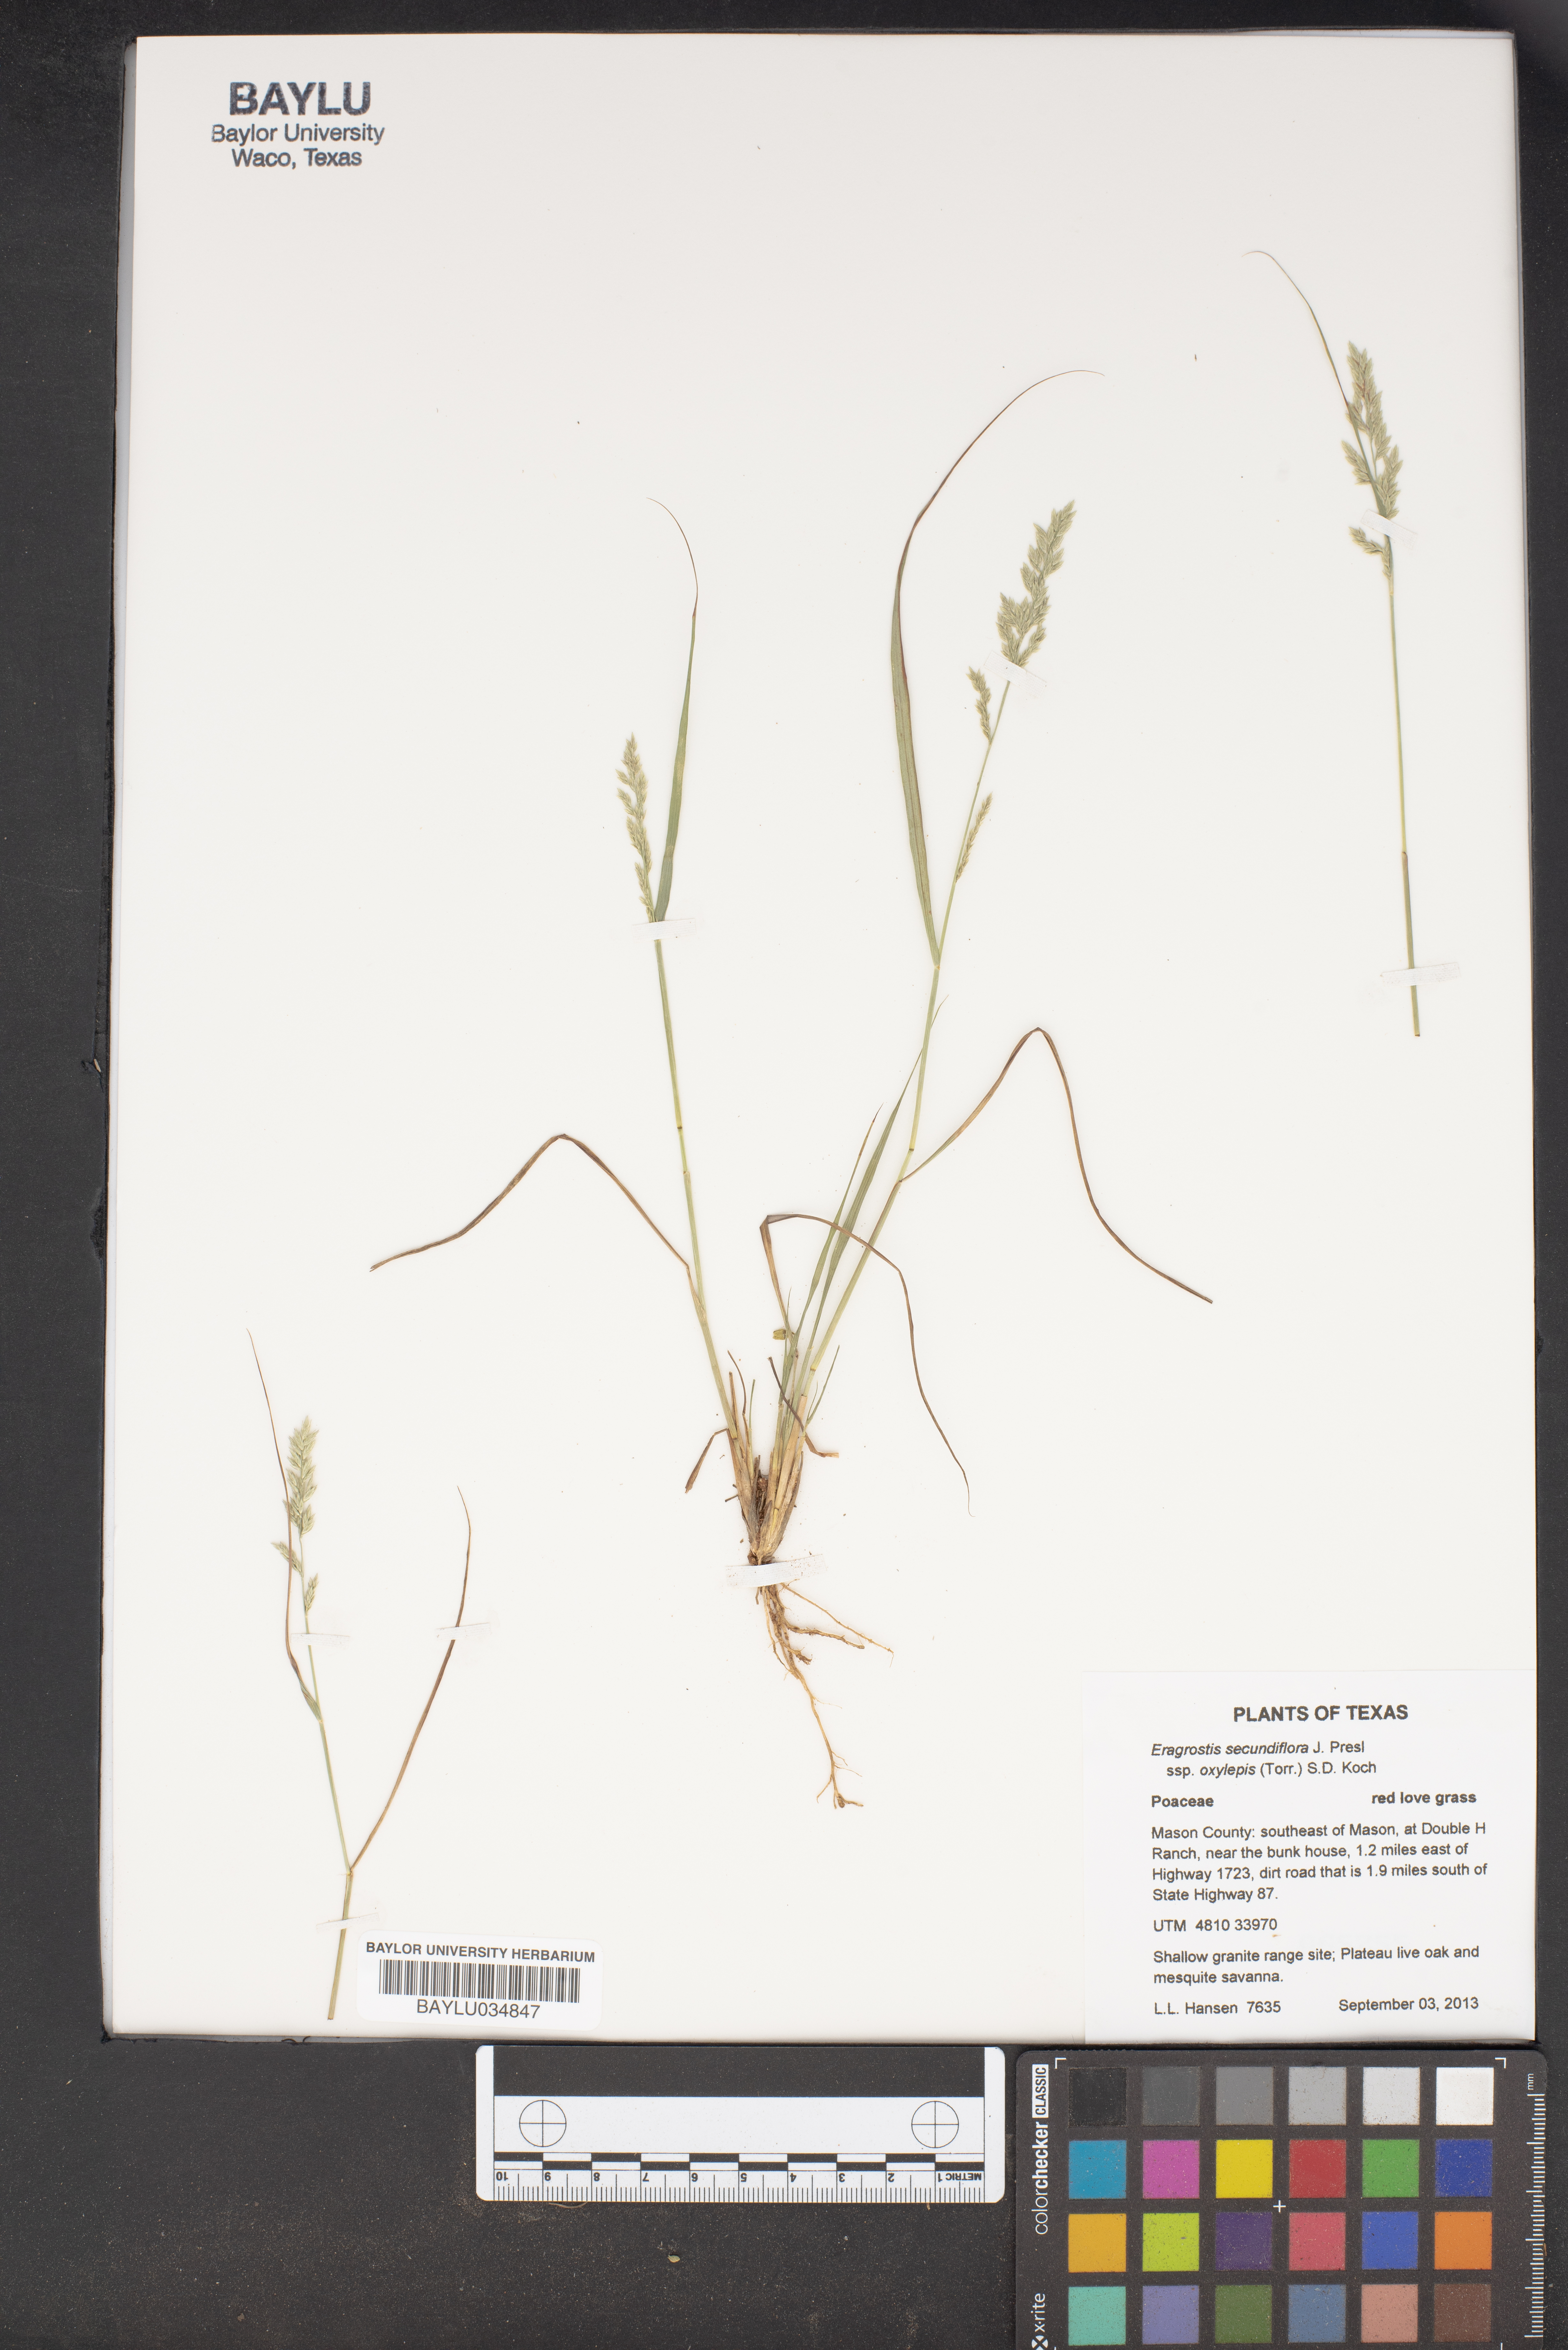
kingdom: Plantae
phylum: Tracheophyta
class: Liliopsida
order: Poales
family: Poaceae
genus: Eragrostis
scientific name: Eragrostis secundiflora
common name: Red love grass
